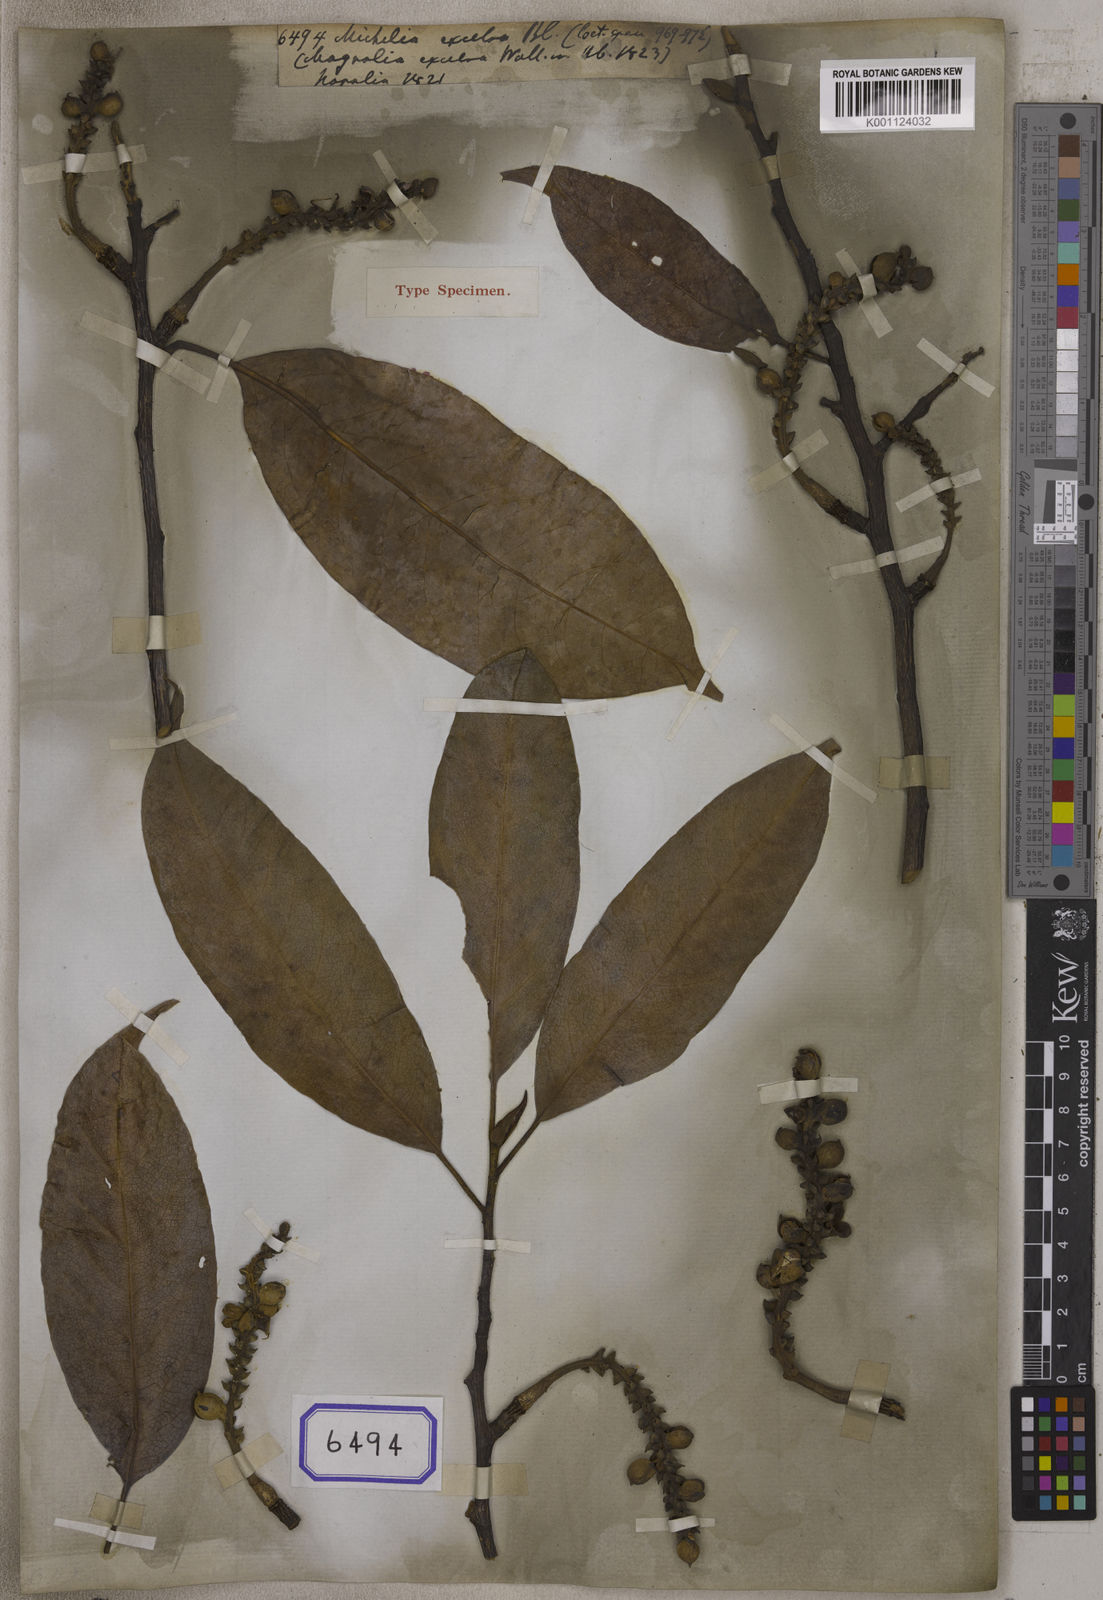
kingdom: Plantae
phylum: Tracheophyta
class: Magnoliopsida
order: Magnoliales
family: Magnoliaceae
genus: Michelia
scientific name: Michelia
